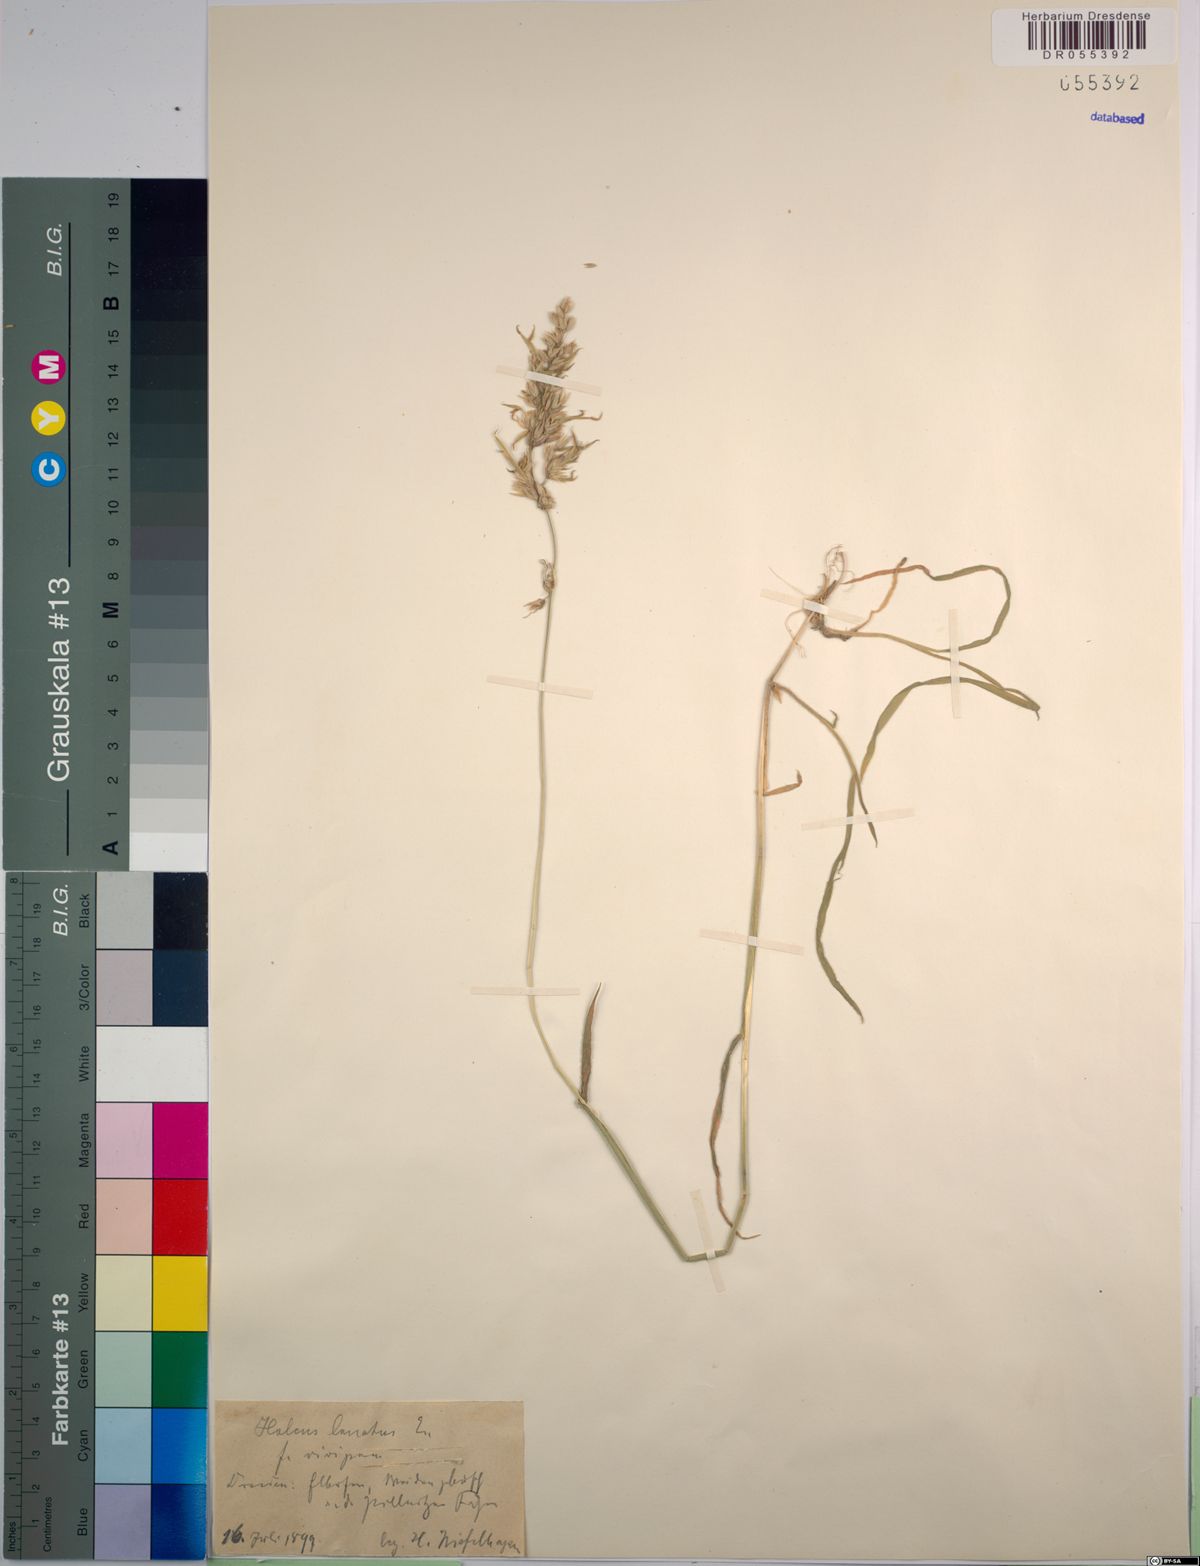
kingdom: Plantae
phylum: Tracheophyta
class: Liliopsida
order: Poales
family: Poaceae
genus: Holcus
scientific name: Holcus lanatus
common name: Yorkshire-fog
